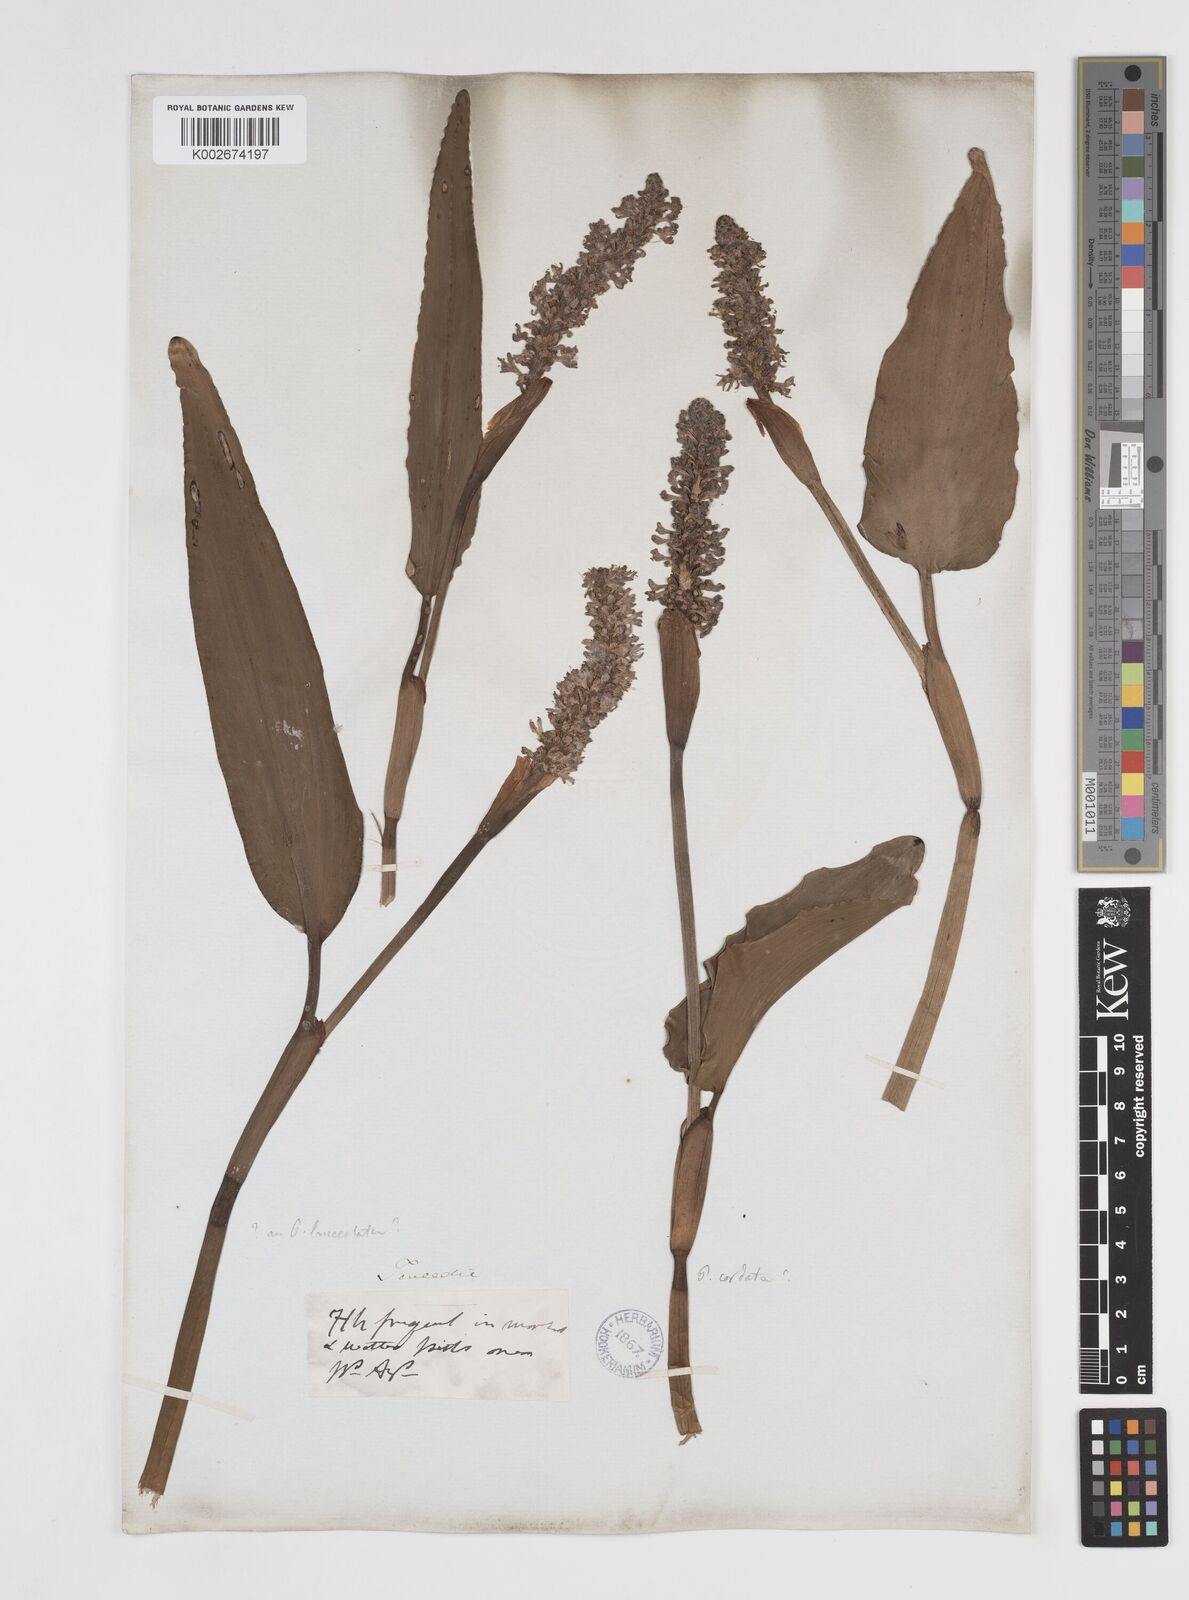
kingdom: Plantae
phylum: Tracheophyta
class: Liliopsida
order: Commelinales
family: Pontederiaceae
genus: Pontederia
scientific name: Pontederia
